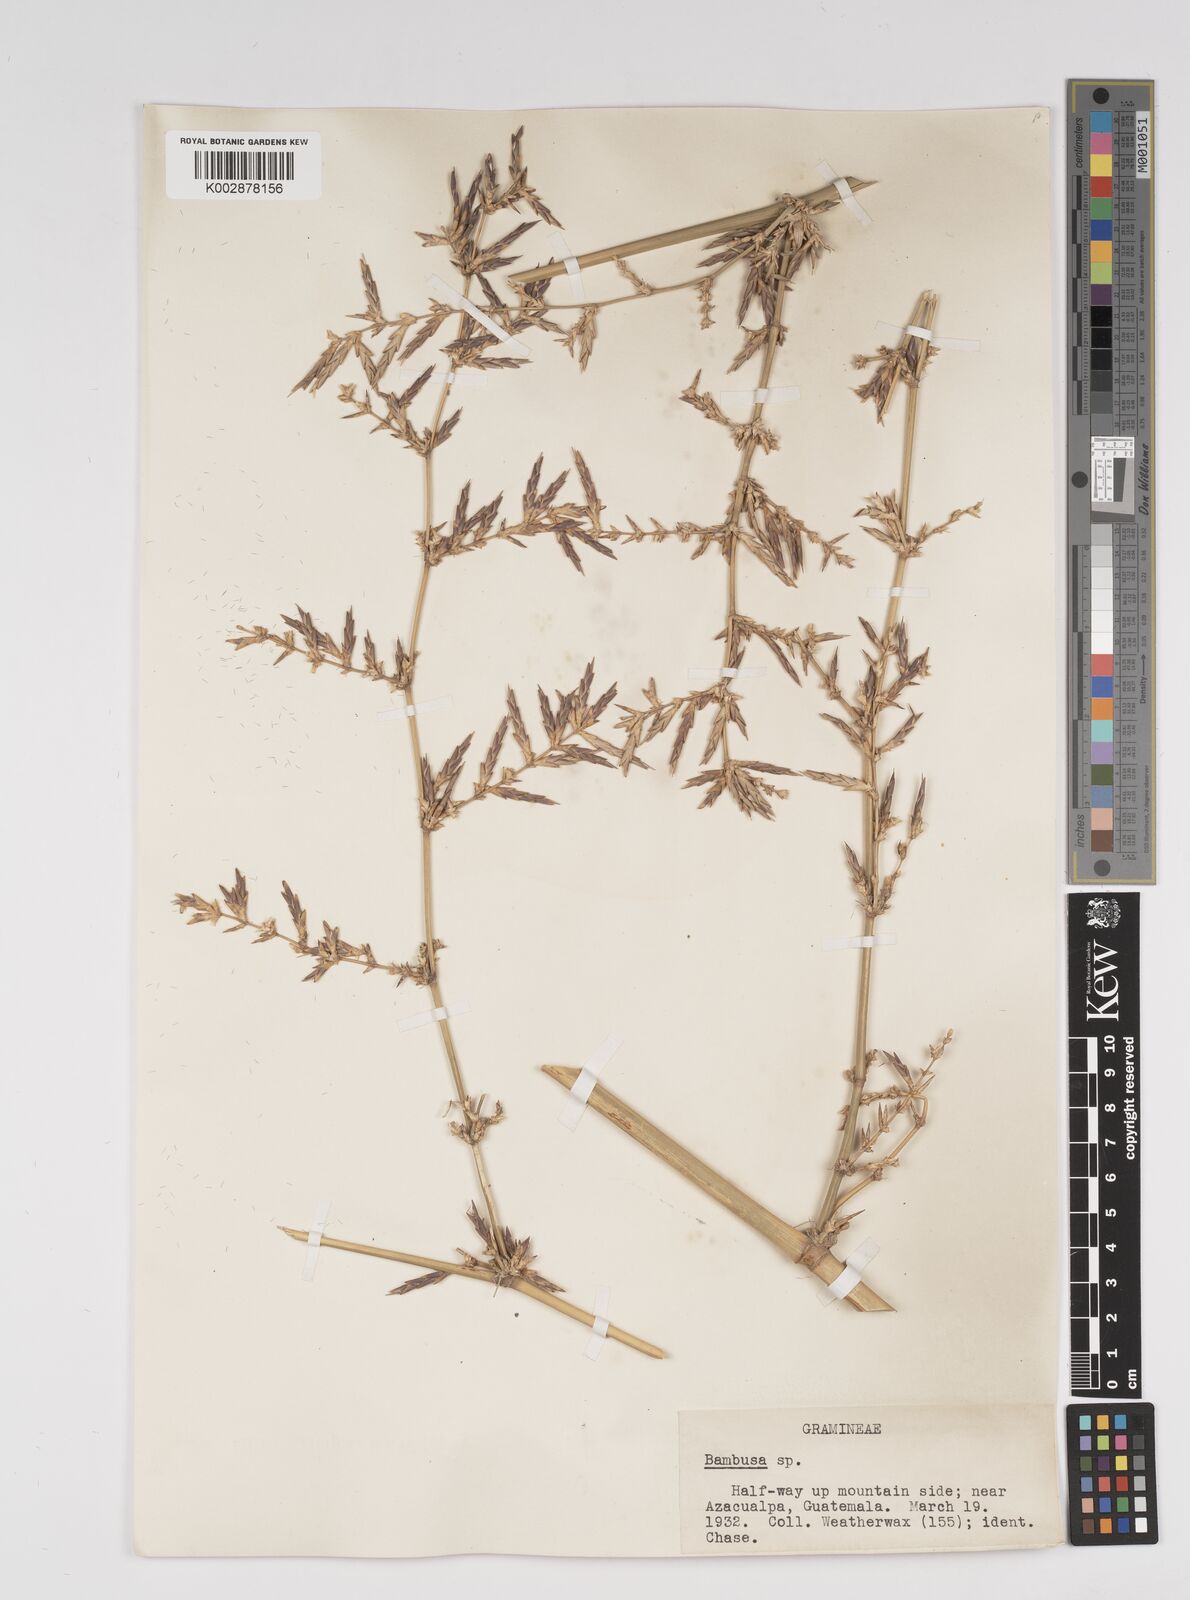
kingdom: Plantae
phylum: Tracheophyta
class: Liliopsida
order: Poales
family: Poaceae
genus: Bambusa
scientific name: Bambusa
